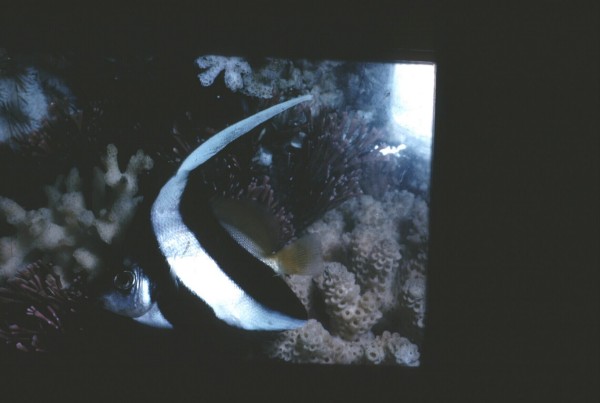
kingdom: Animalia
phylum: Chordata
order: Perciformes
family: Chaetodontidae
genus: Heniochus
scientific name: Heniochus acuminatus
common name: Pennant coralfish
